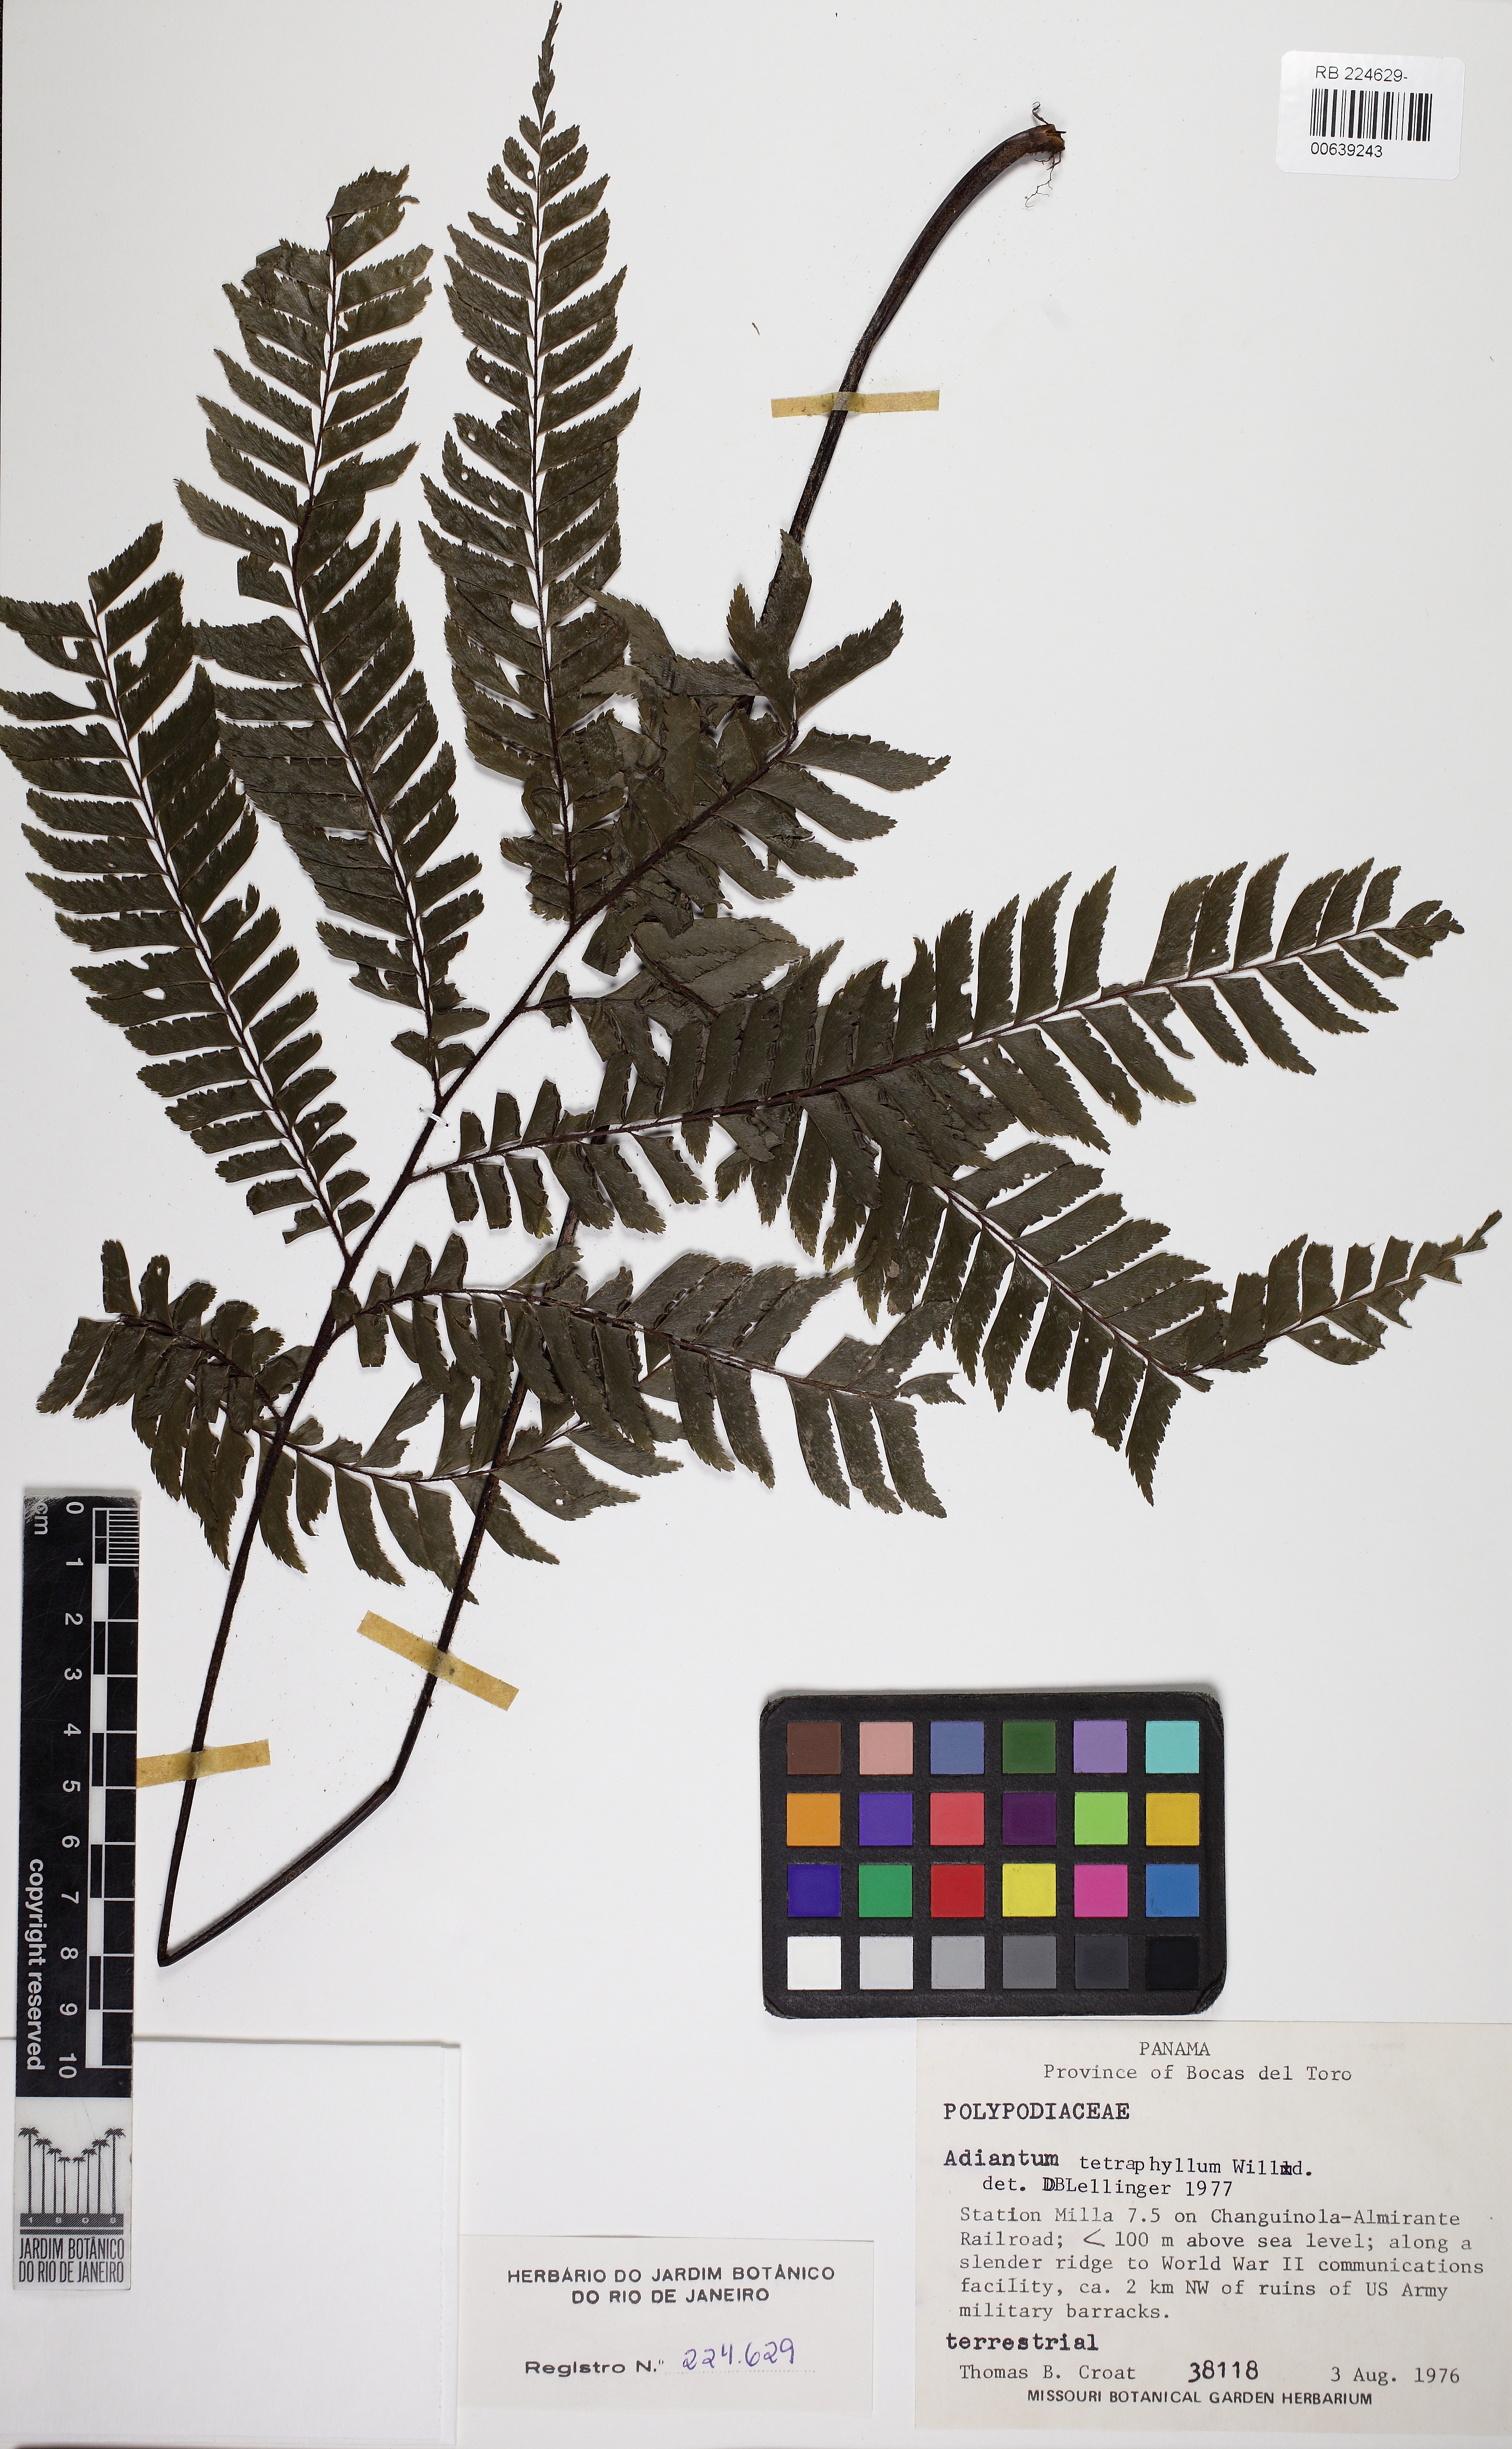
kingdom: Plantae
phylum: Tracheophyta
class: Polypodiopsida
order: Polypodiales
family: Pteridaceae
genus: Adiantum
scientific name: Adiantum tetraphyllum
